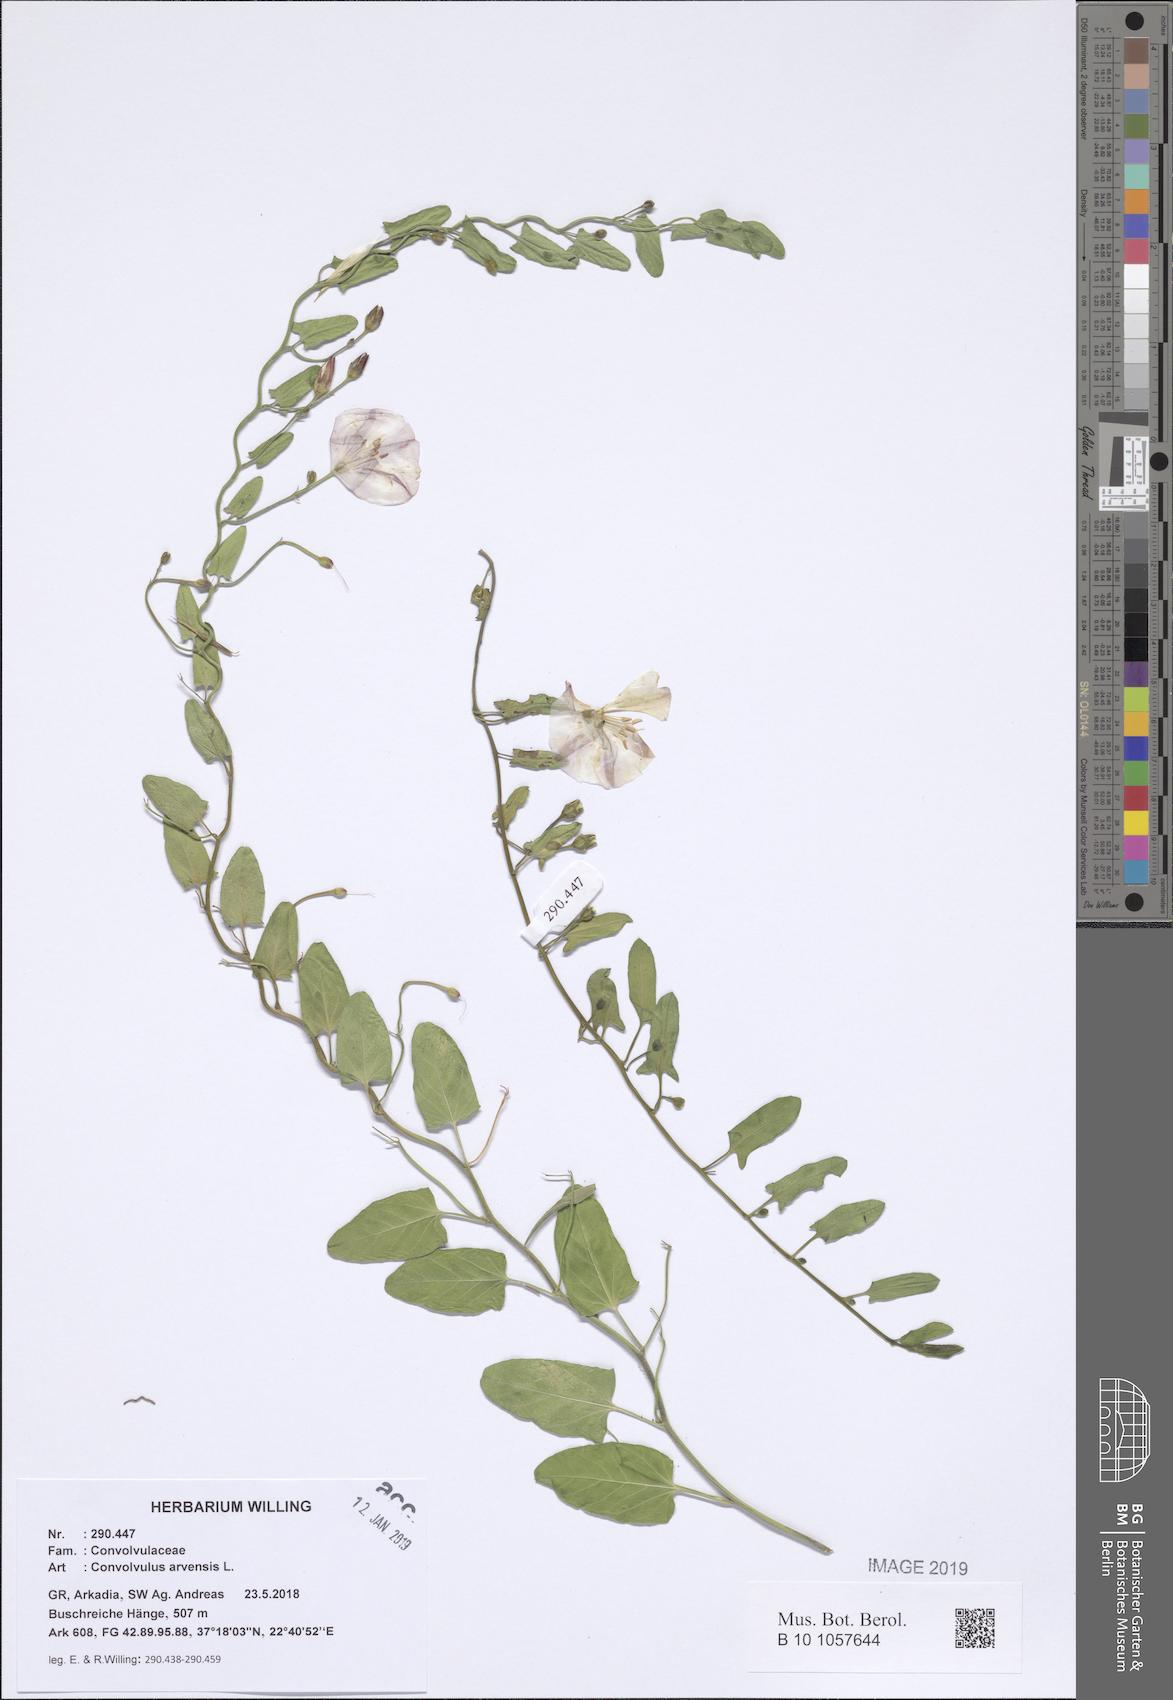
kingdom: Plantae
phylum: Tracheophyta
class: Magnoliopsida
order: Solanales
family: Convolvulaceae
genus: Convolvulus
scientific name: Convolvulus arvensis
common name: Field bindweed
